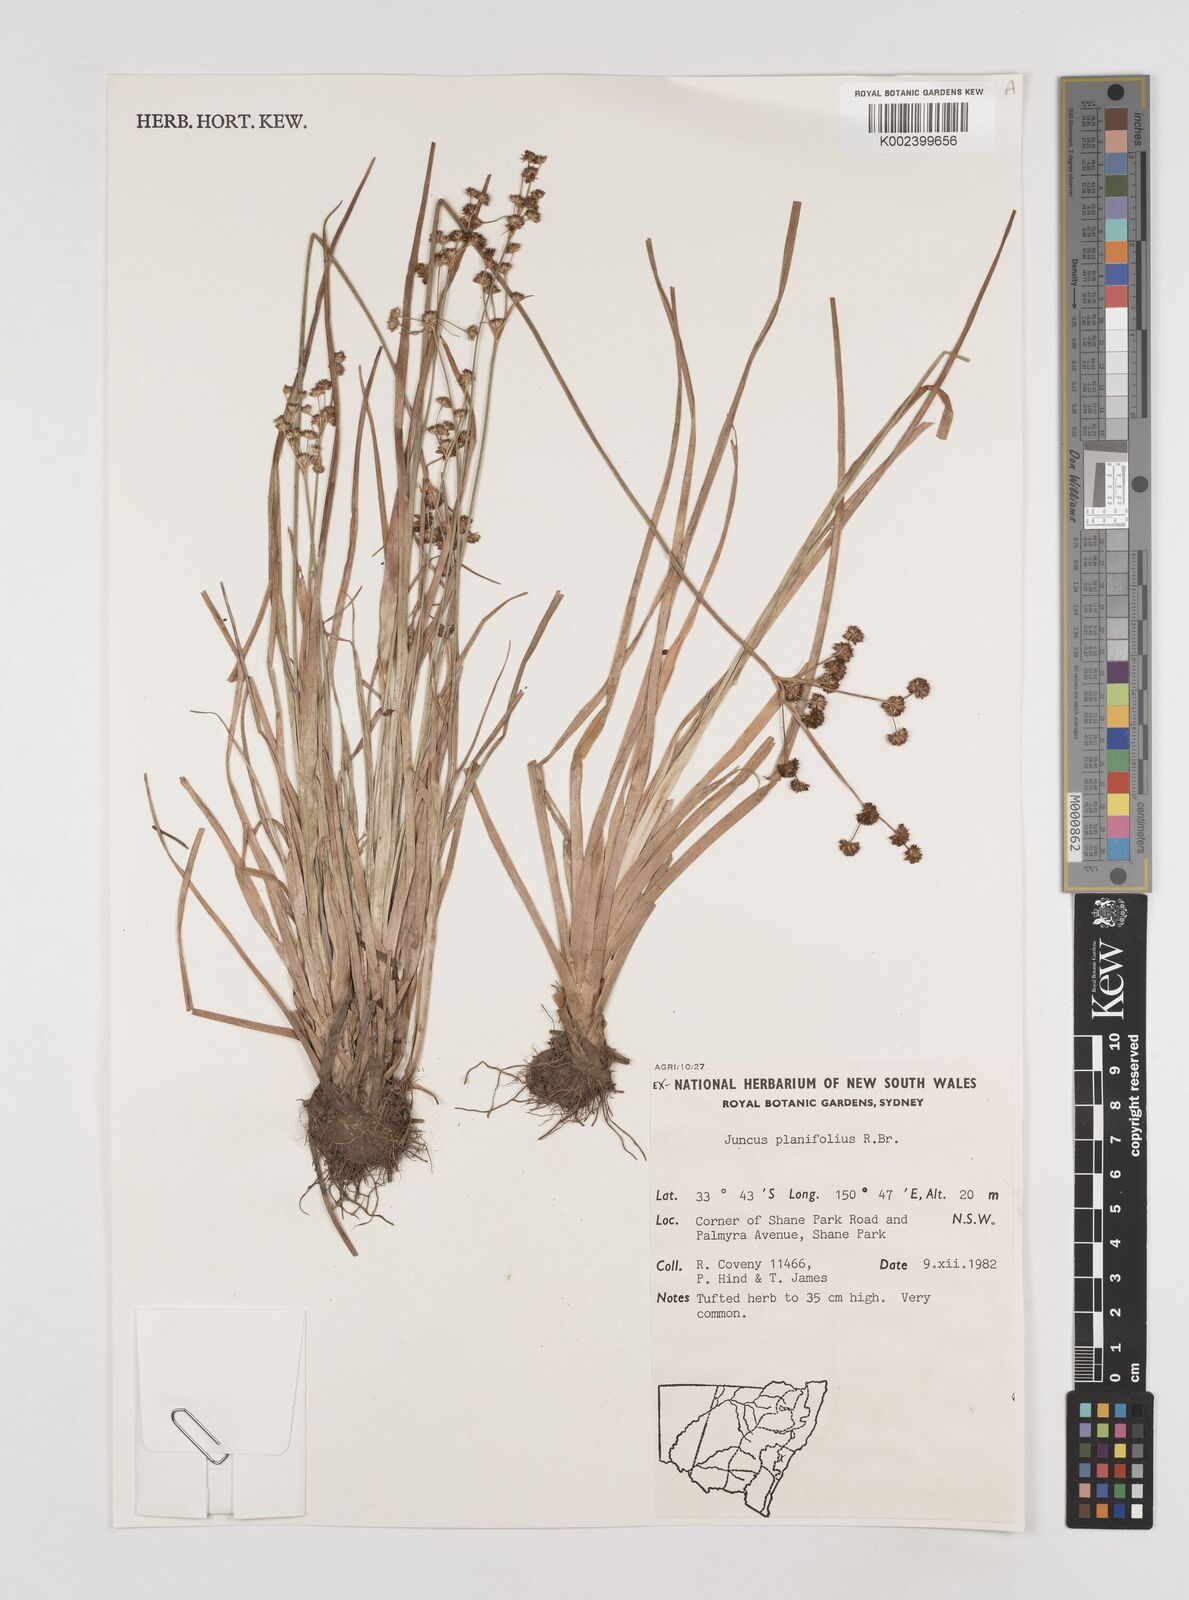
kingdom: Plantae
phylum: Tracheophyta
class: Liliopsida
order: Poales
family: Juncaceae
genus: Juncus
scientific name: Juncus planifolius
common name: Broadleaf rush
